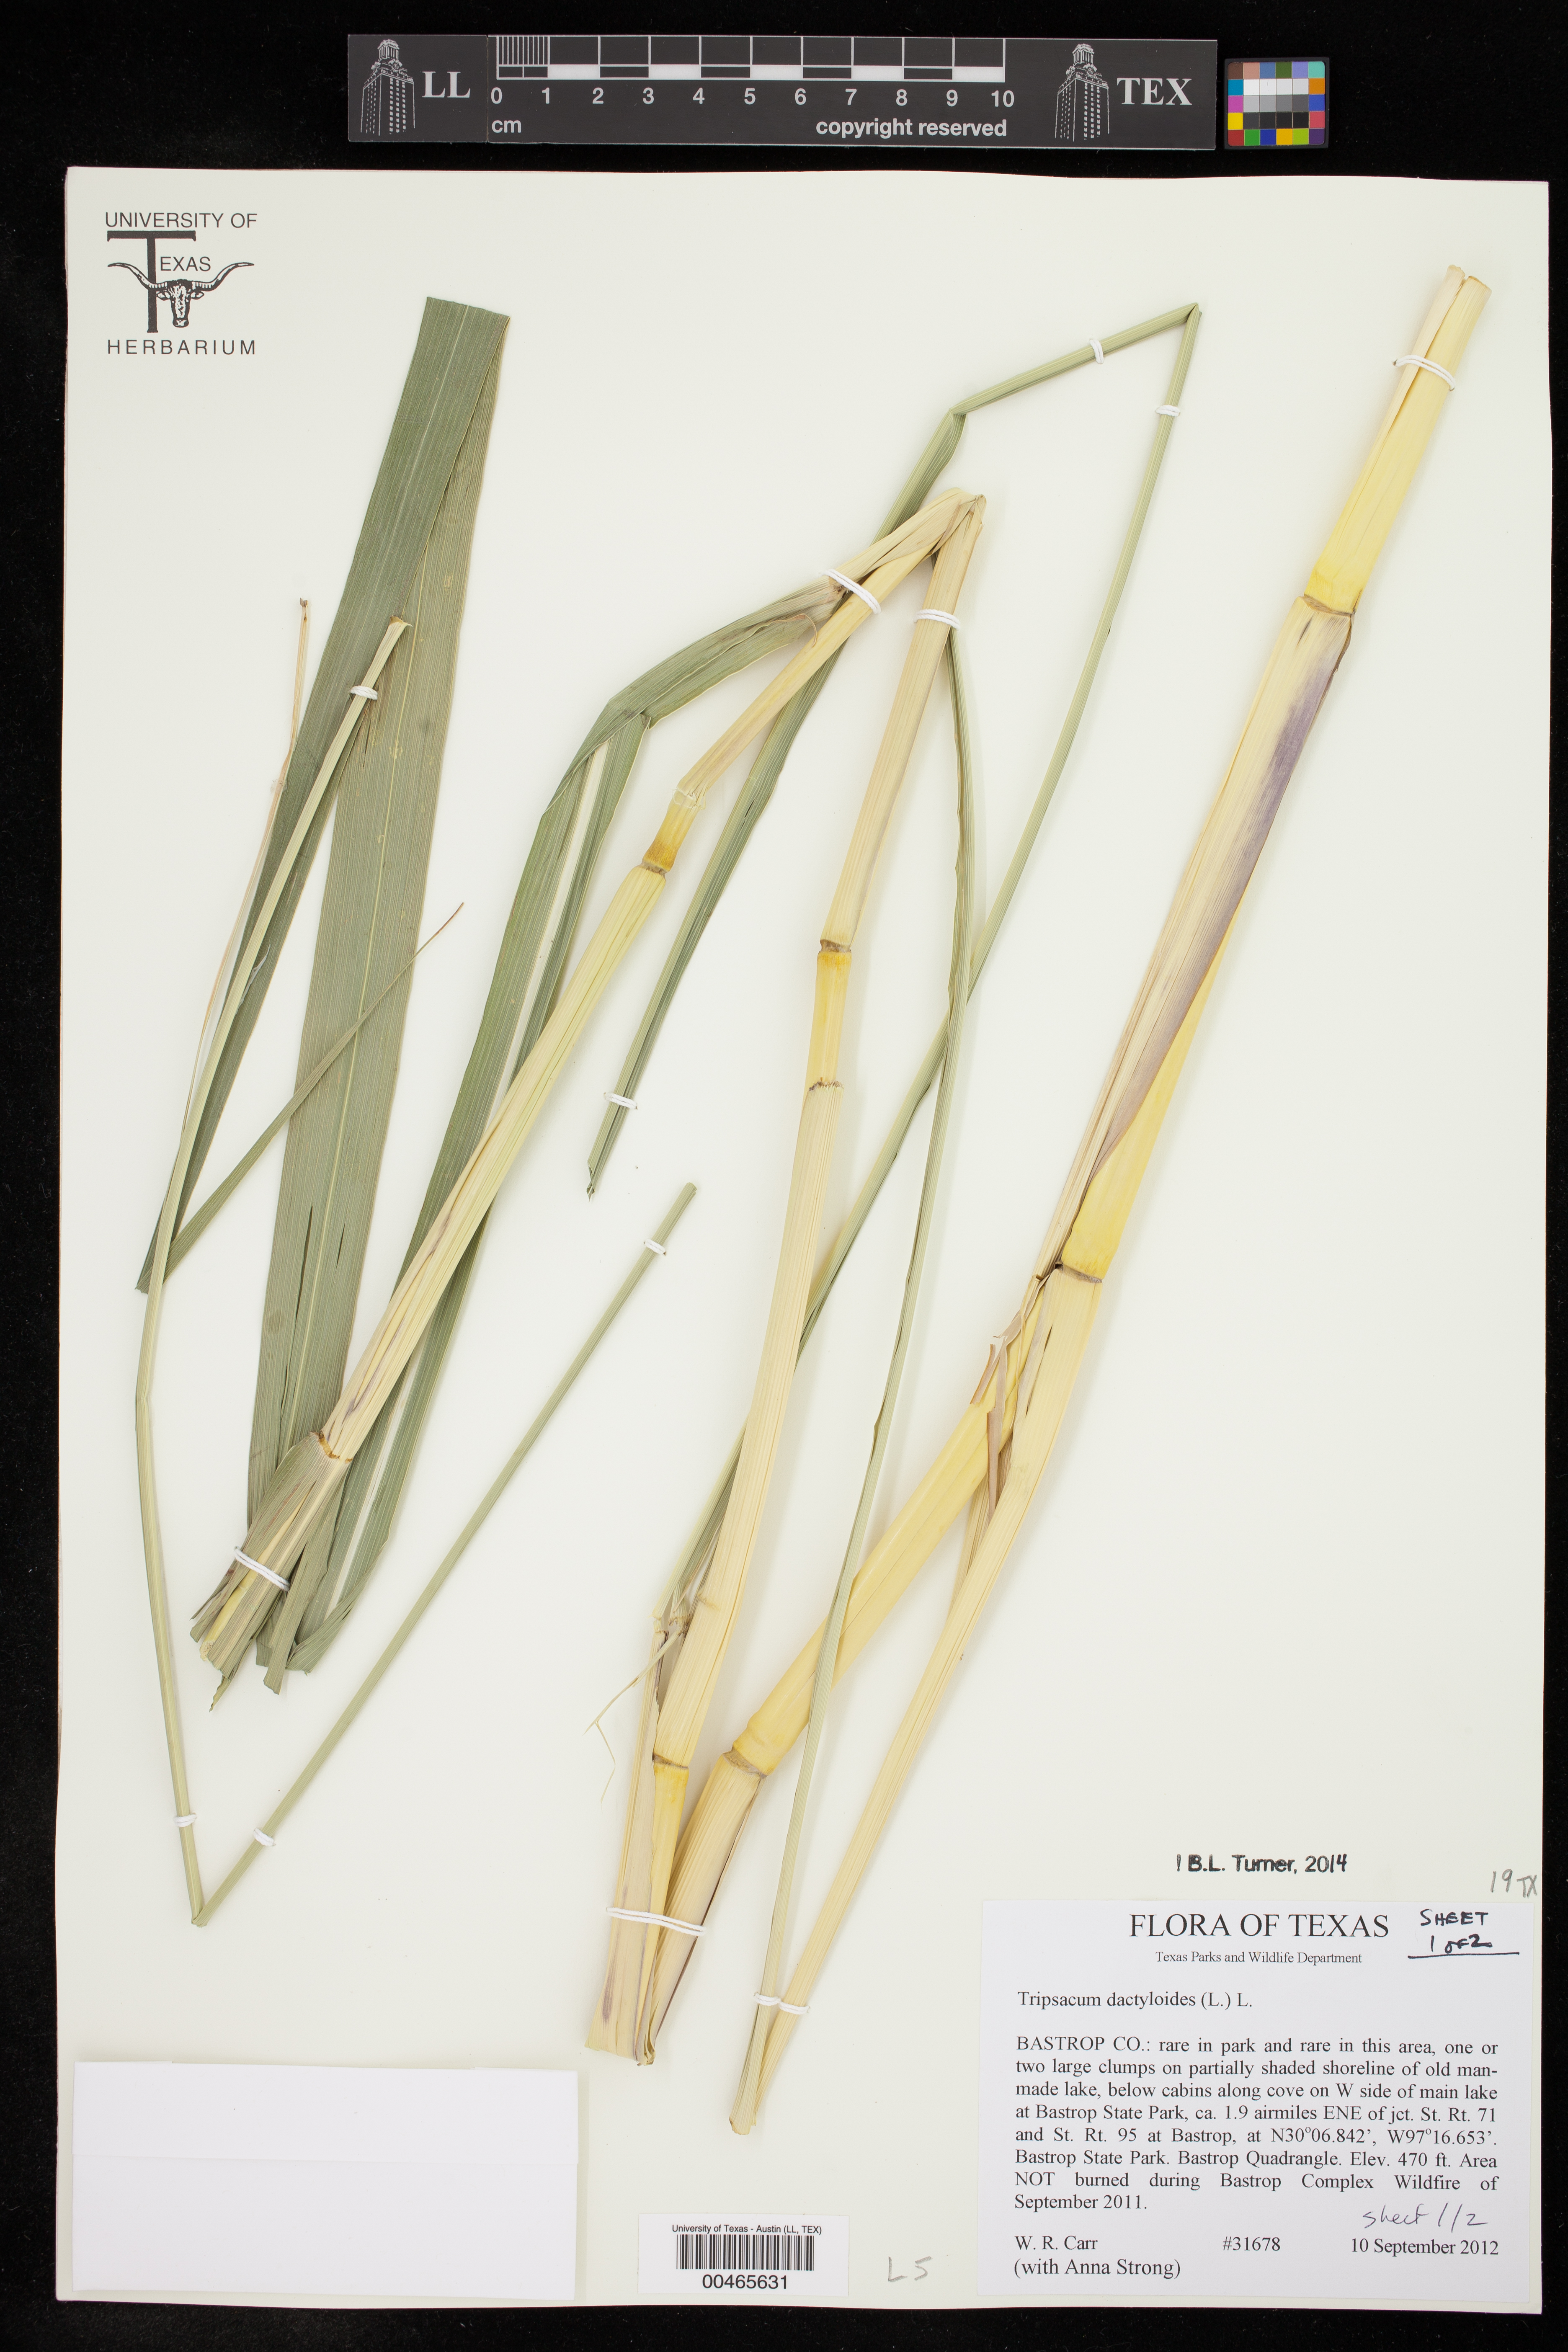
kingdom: Plantae
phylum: Tracheophyta
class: Liliopsida
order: Poales
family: Poaceae
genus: Tripsacum
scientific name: Tripsacum dactyloides
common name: Buffalo-grass
